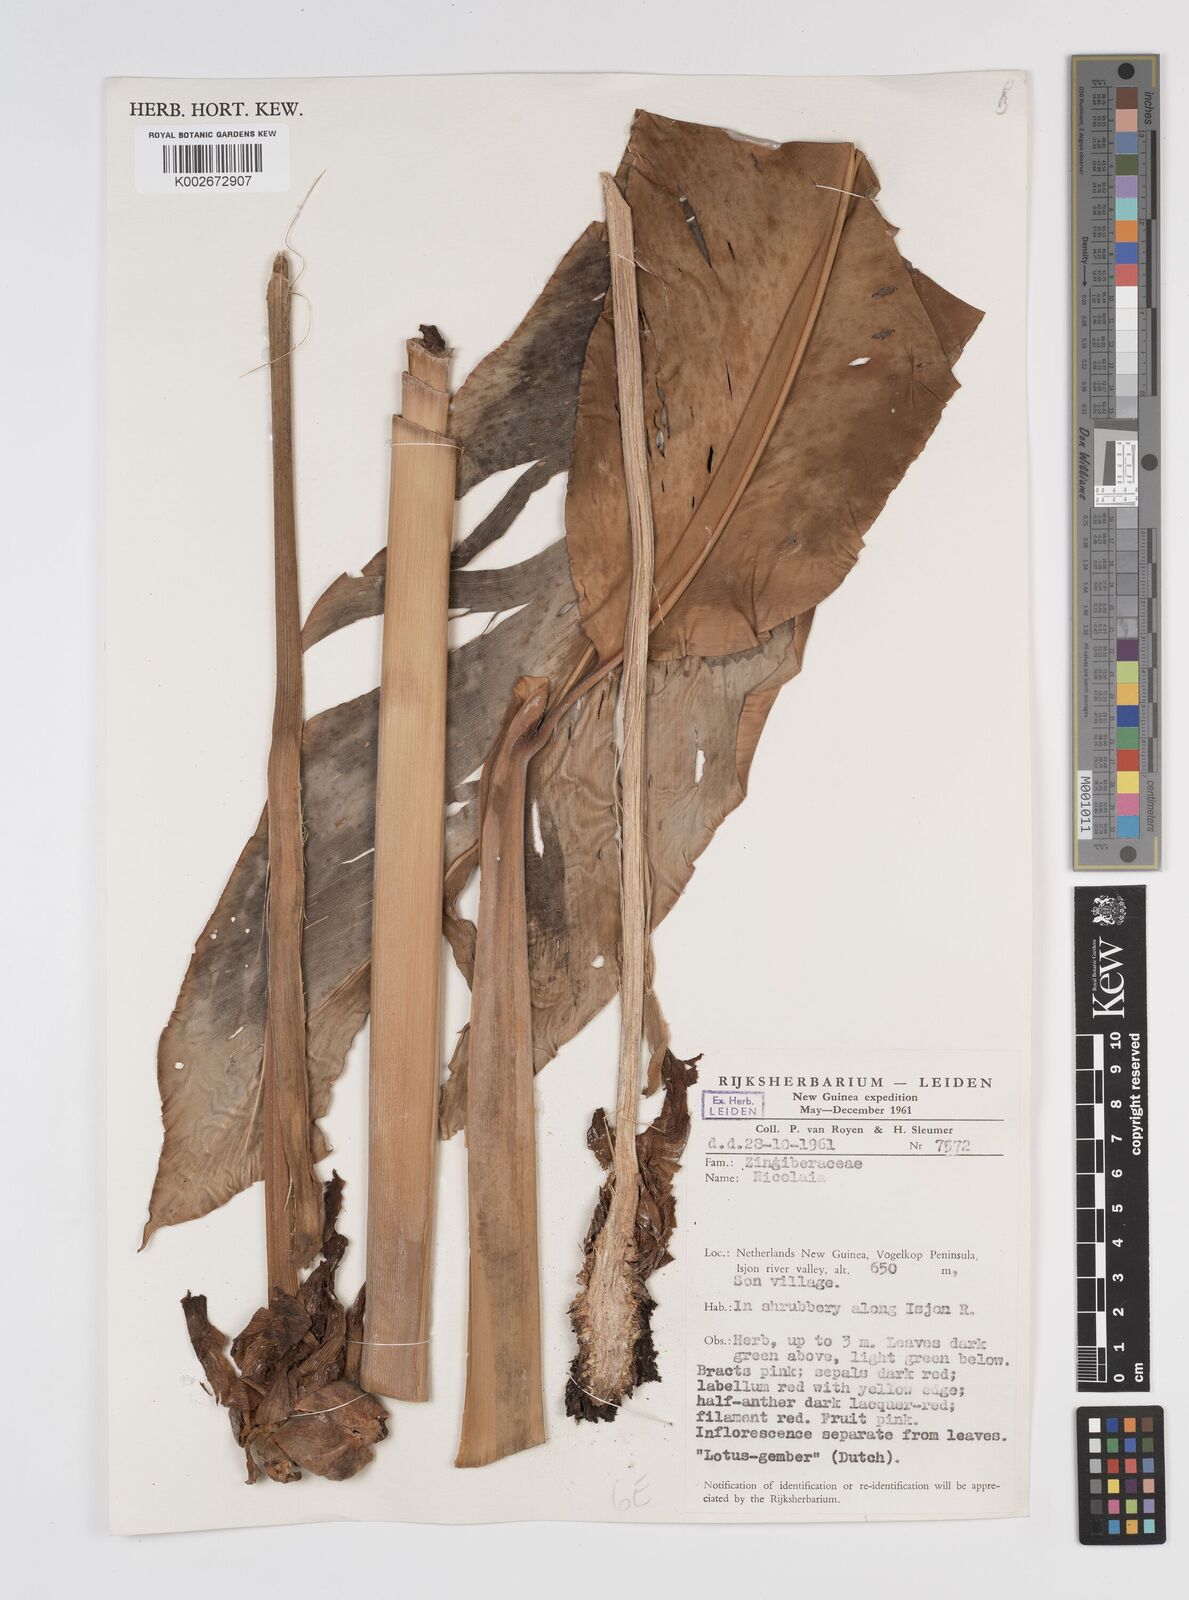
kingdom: Plantae
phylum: Tracheophyta
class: Liliopsida
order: Zingiberales
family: Zingiberaceae
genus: Etlingera
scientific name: Etlingera
